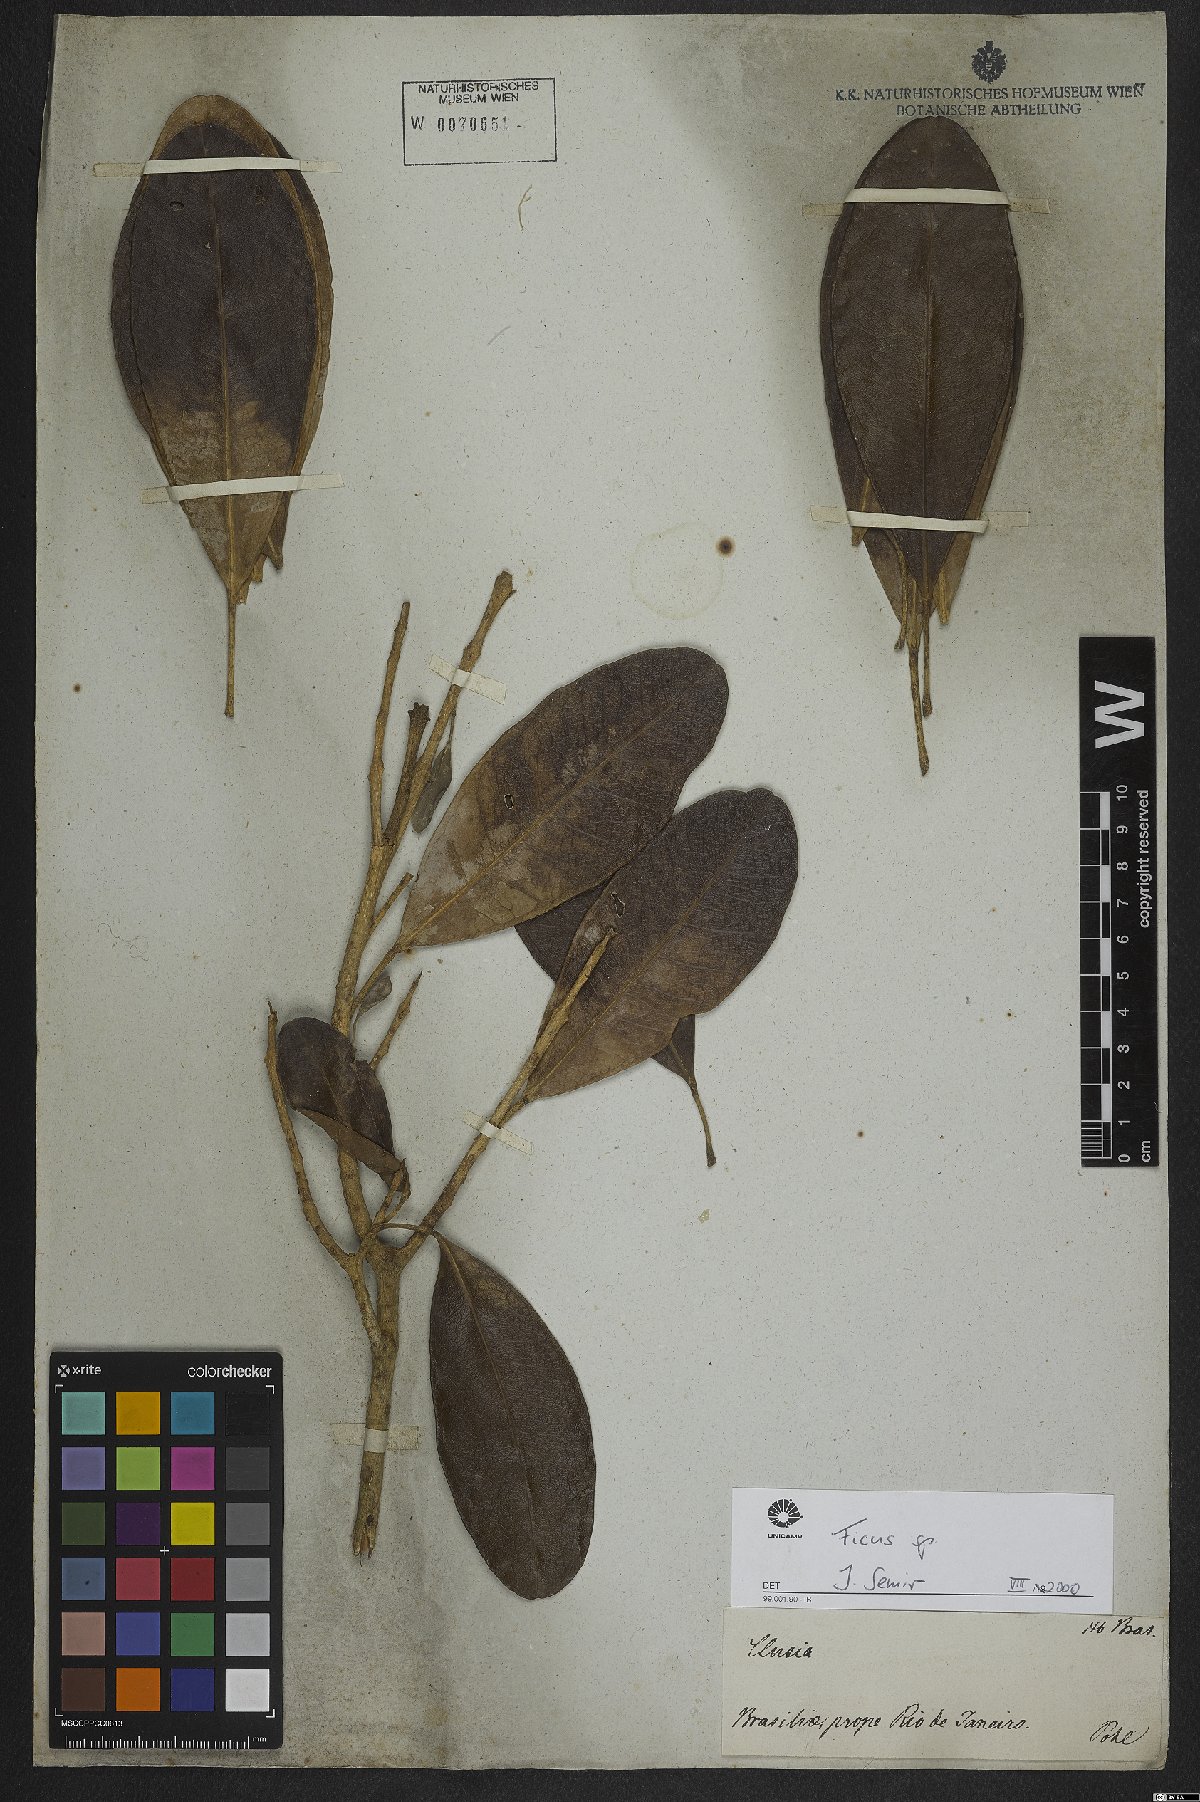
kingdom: Plantae
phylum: Tracheophyta
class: Magnoliopsida
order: Rosales
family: Moraceae
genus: Ficus
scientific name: Ficus
